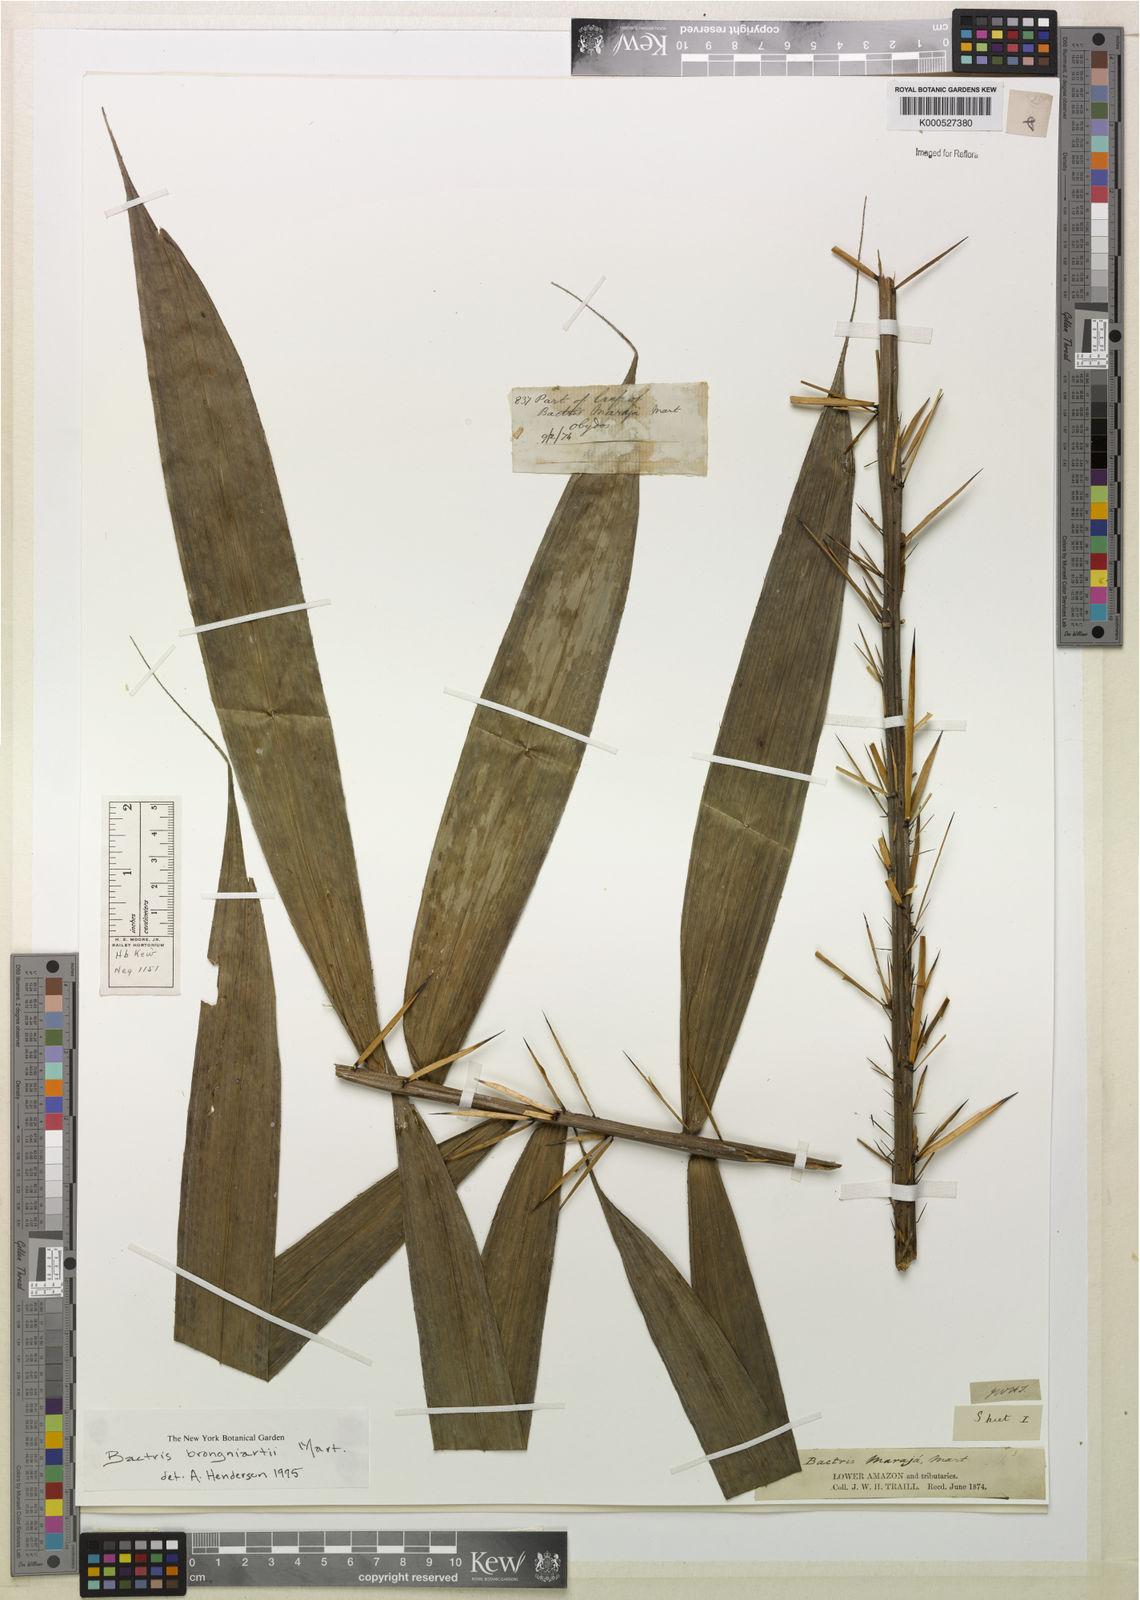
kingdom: Plantae
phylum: Tracheophyta
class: Liliopsida
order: Arecales
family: Arecaceae
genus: Bactris
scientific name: Bactris brongniartii
